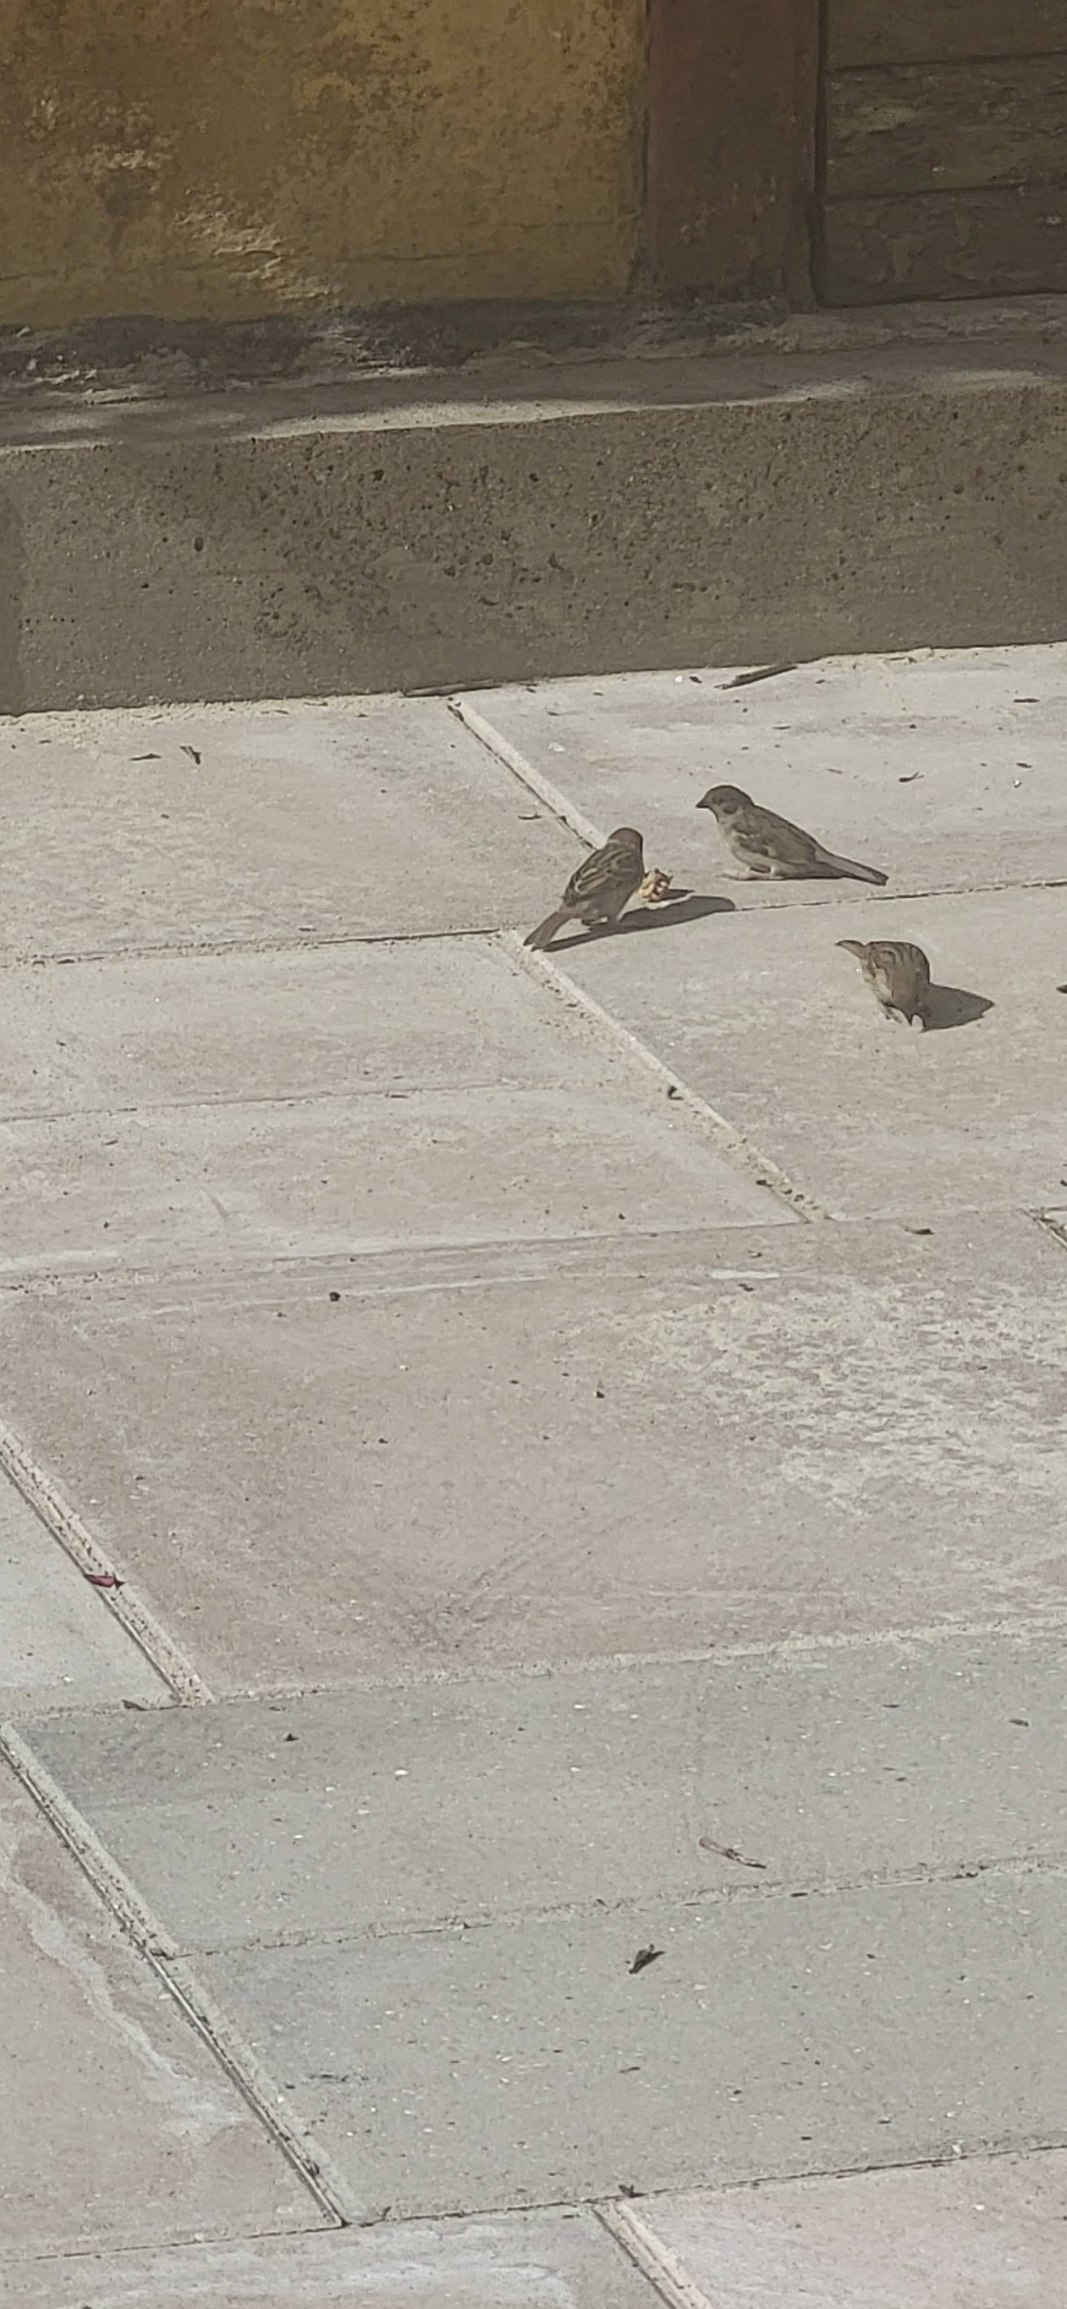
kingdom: Animalia
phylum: Chordata
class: Aves
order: Passeriformes
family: Passeridae
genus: Passer
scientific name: Passer montanus
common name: Skovspurv
